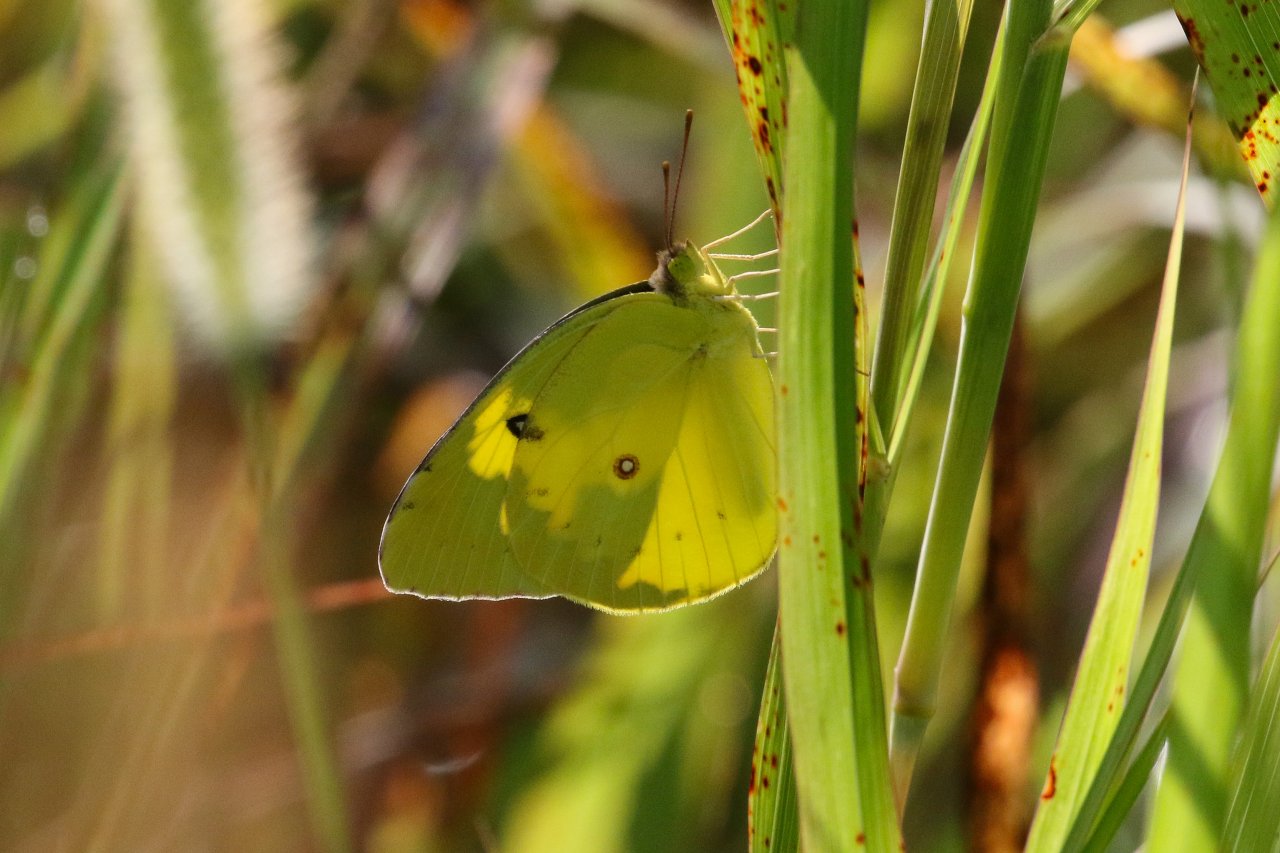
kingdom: Animalia
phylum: Arthropoda
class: Insecta
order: Lepidoptera
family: Pieridae
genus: Zerene
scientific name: Zerene cesonia
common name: Southern Dogface
